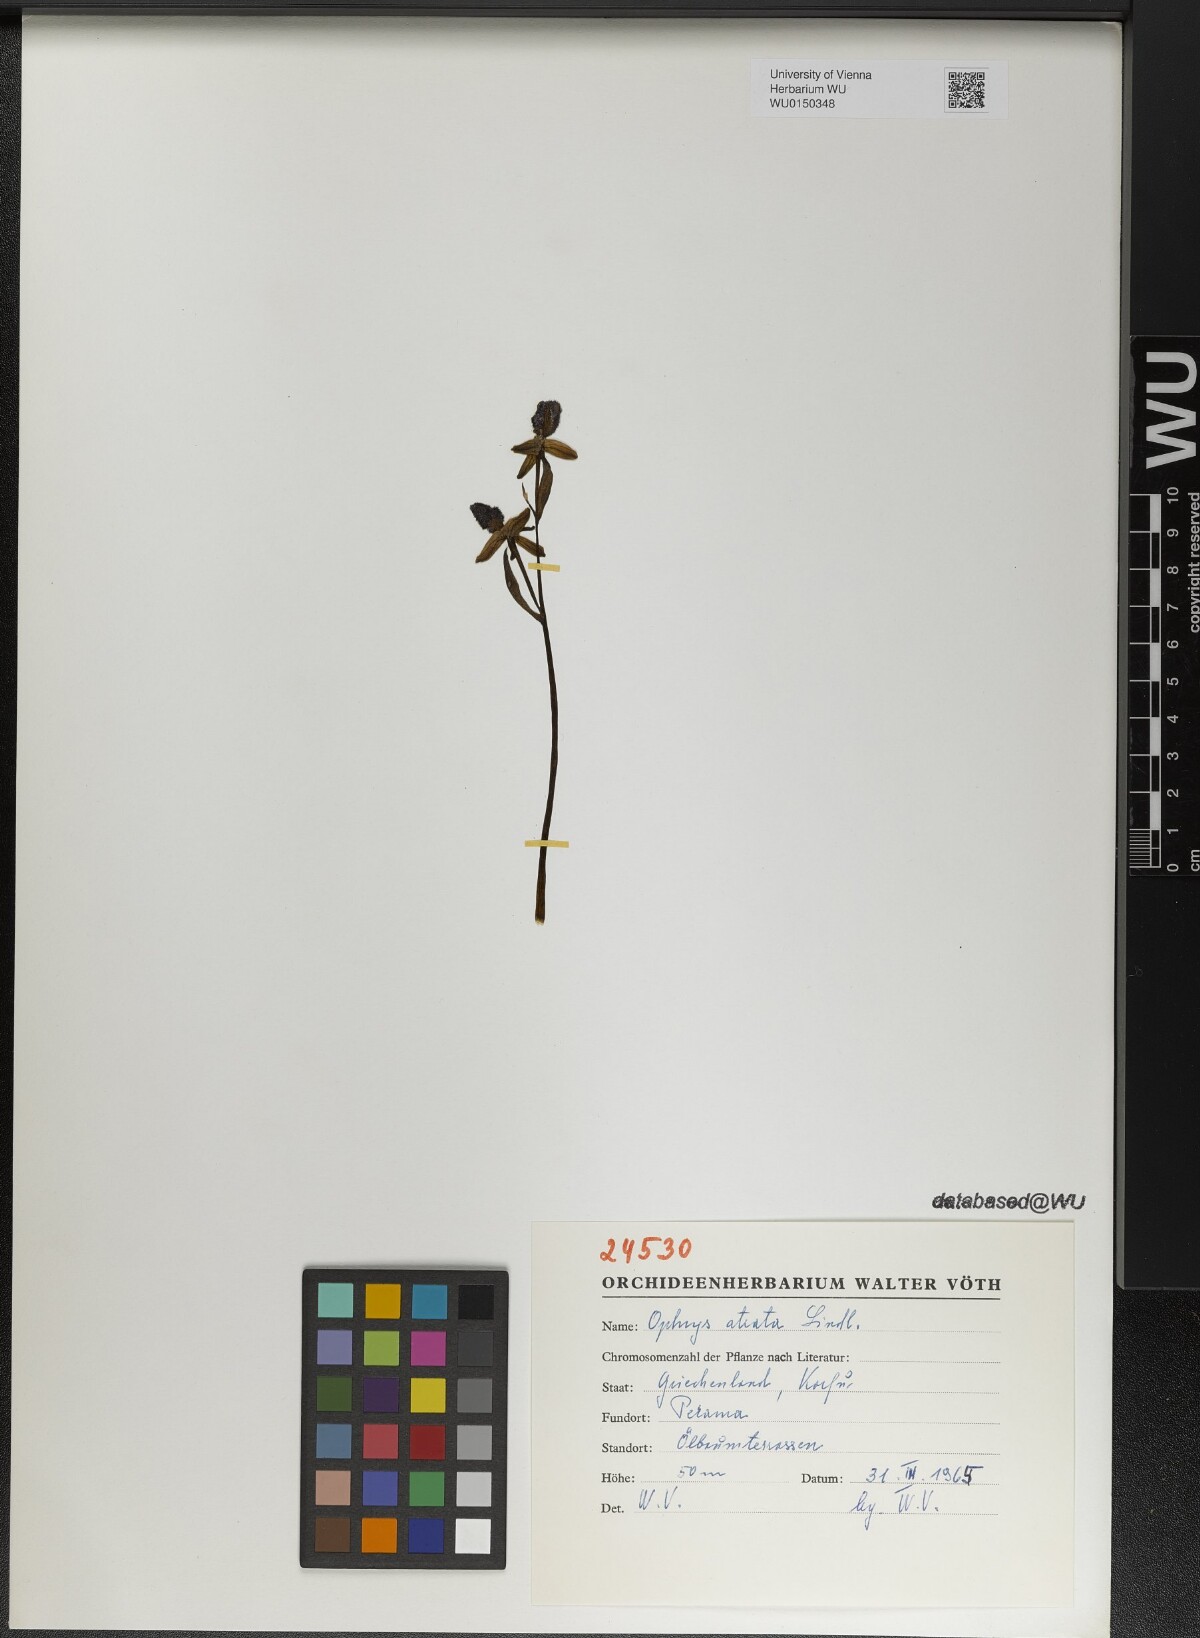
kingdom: Plantae
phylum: Tracheophyta
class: Liliopsida
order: Asparagales
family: Orchidaceae
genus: Ophrys
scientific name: Ophrys sphegodes
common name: Early spider-orchid
